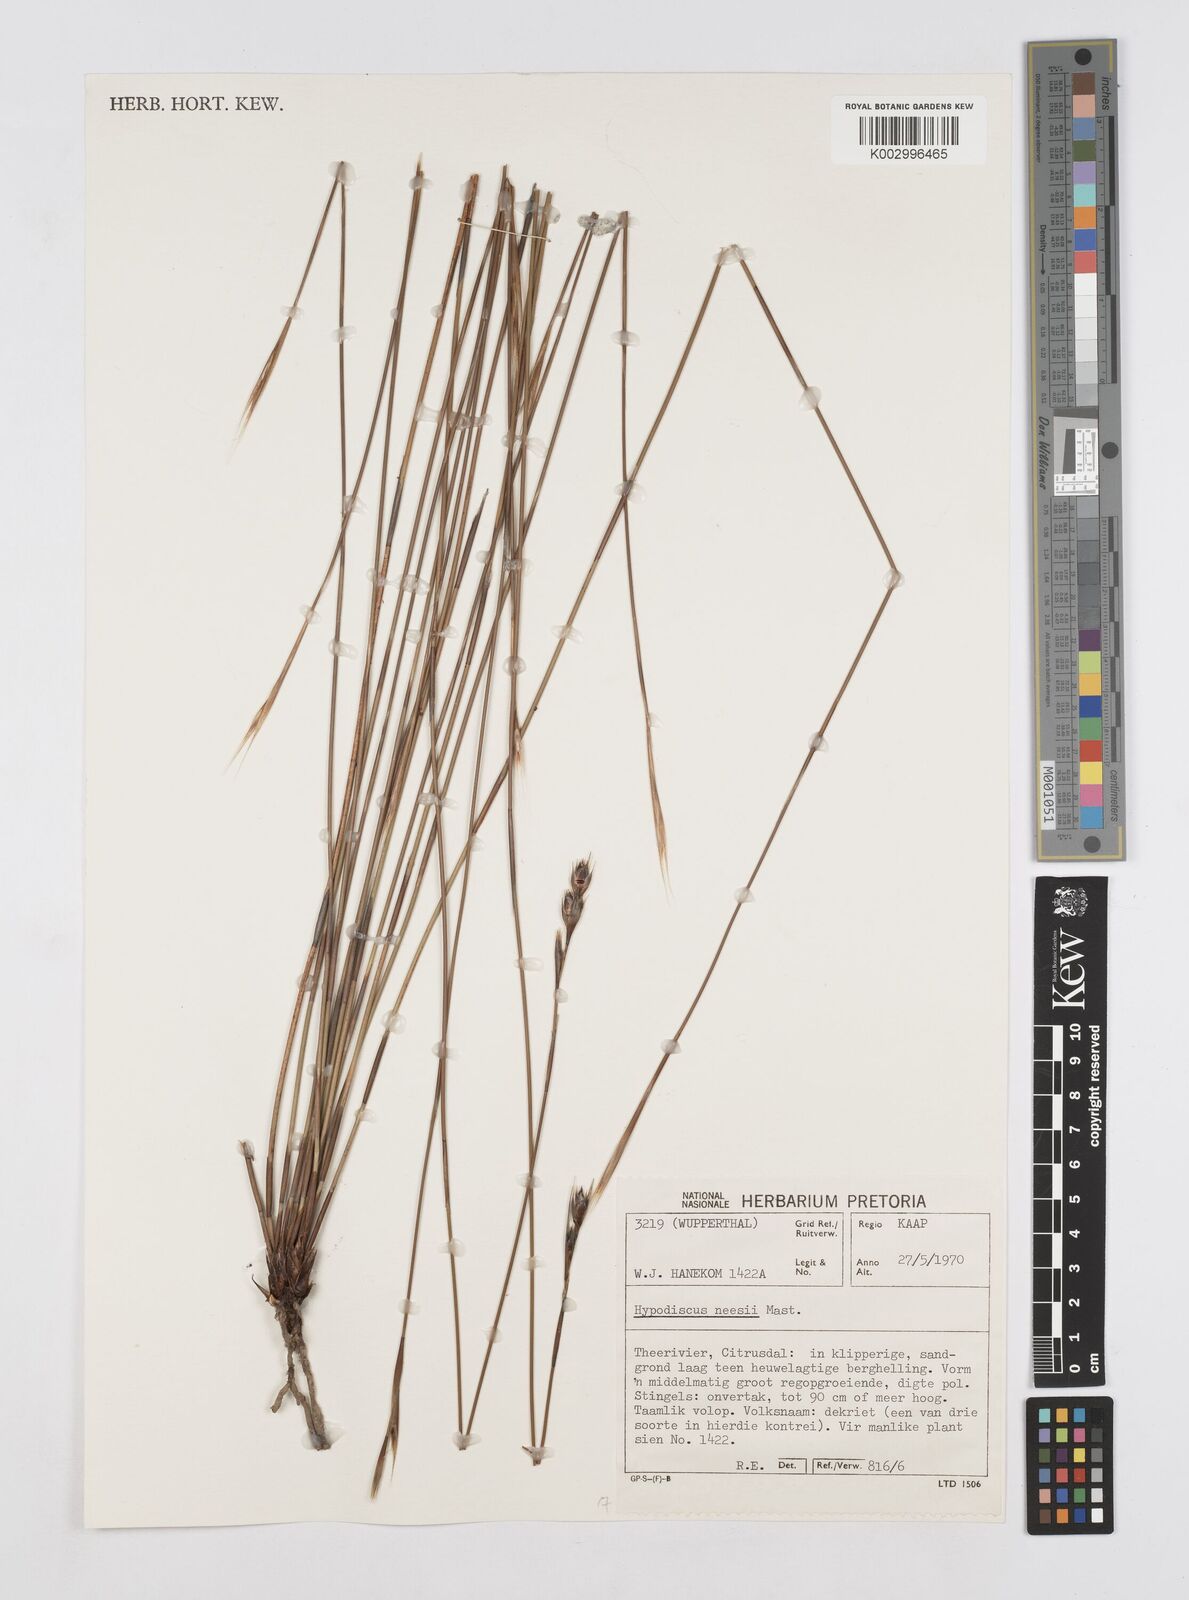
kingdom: Plantae
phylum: Tracheophyta
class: Liliopsida
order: Poales
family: Restionaceae
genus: Hypodiscus
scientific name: Hypodiscus neesii
